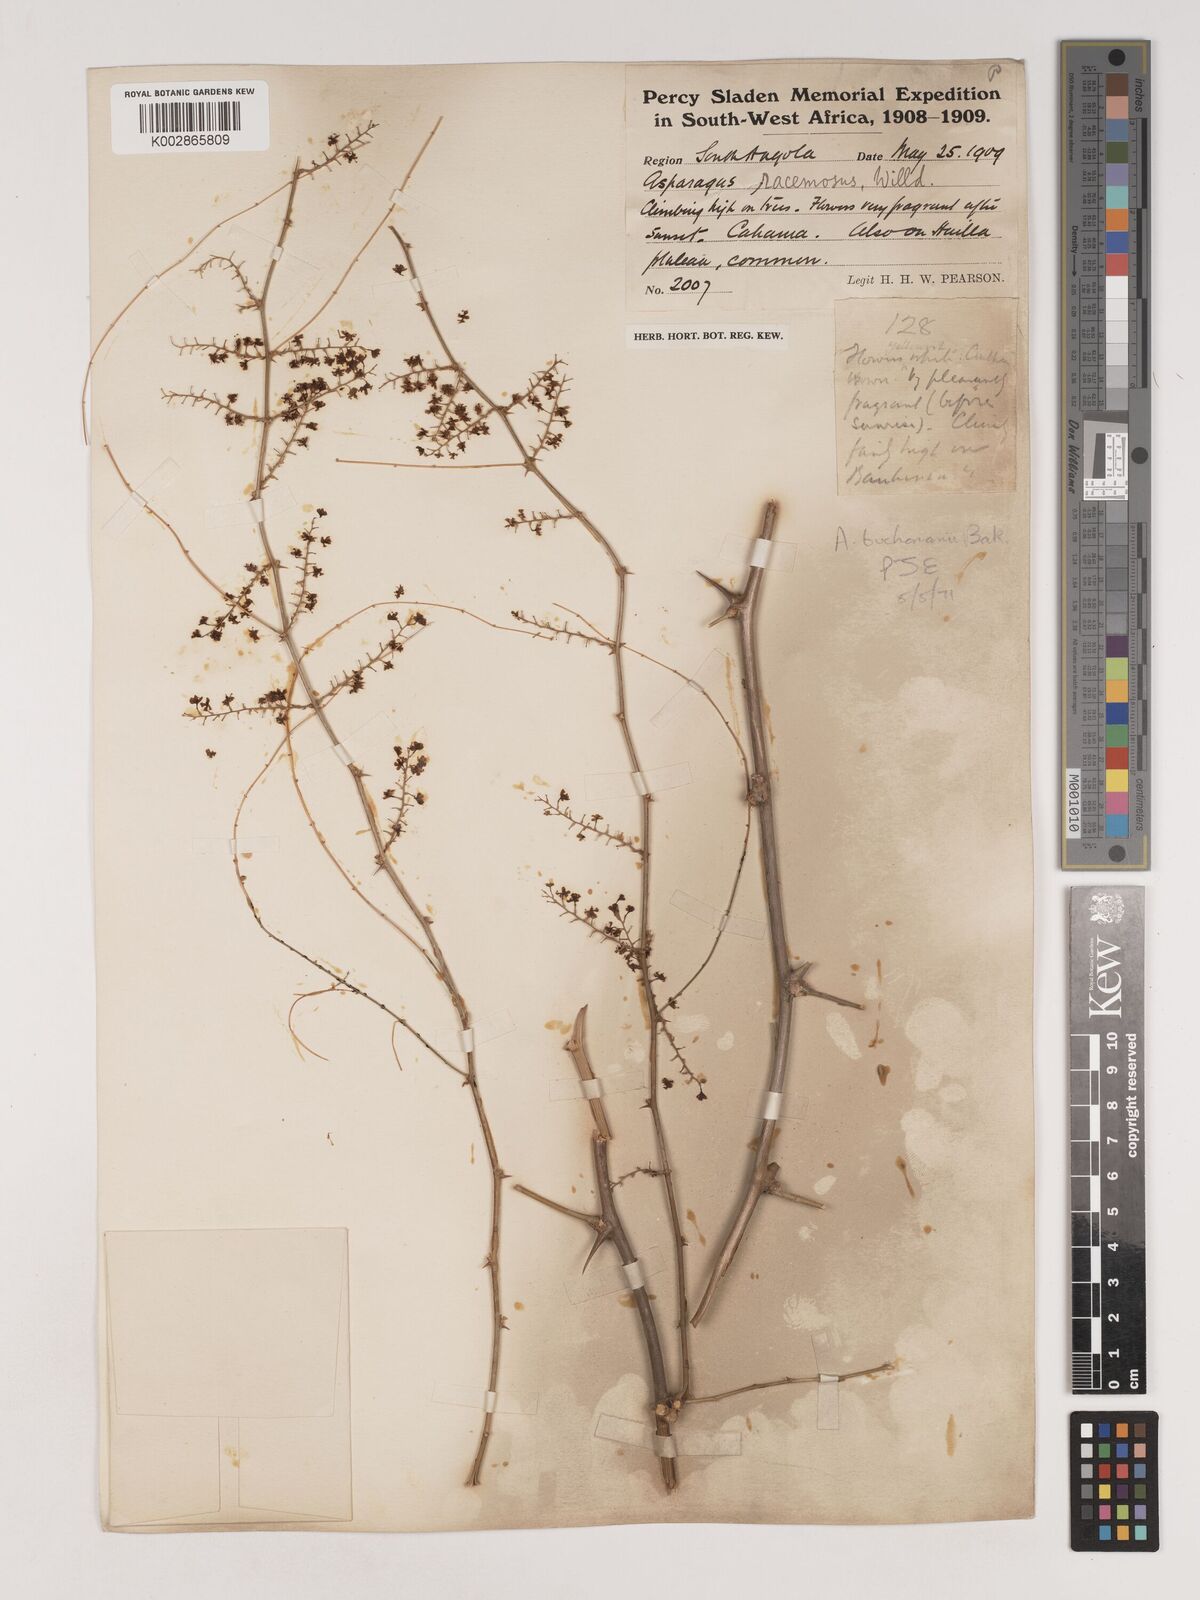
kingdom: Plantae
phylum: Tracheophyta
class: Liliopsida
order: Asparagales
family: Asparagaceae
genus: Asparagus
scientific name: Asparagus buchananii
